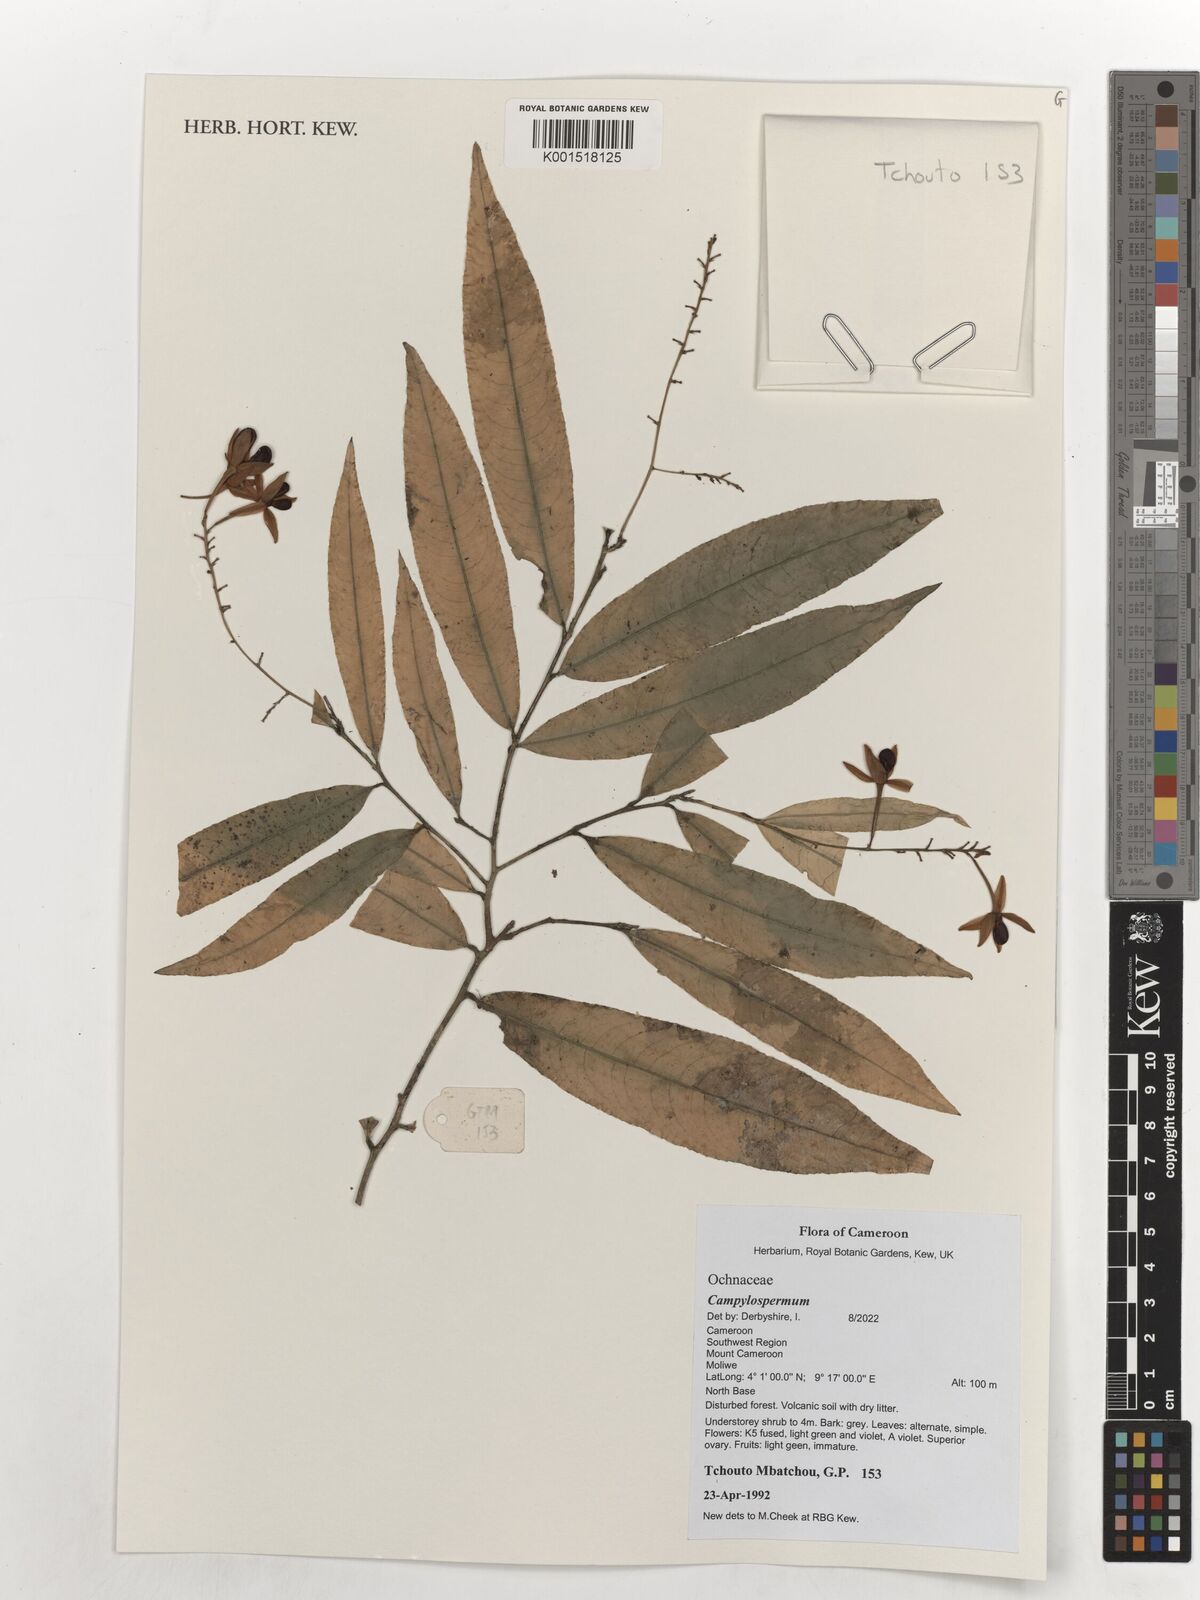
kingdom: Plantae
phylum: Tracheophyta
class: Magnoliopsida
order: Malpighiales
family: Ochnaceae
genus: Campylospermum
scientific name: Campylospermum reticulatum
